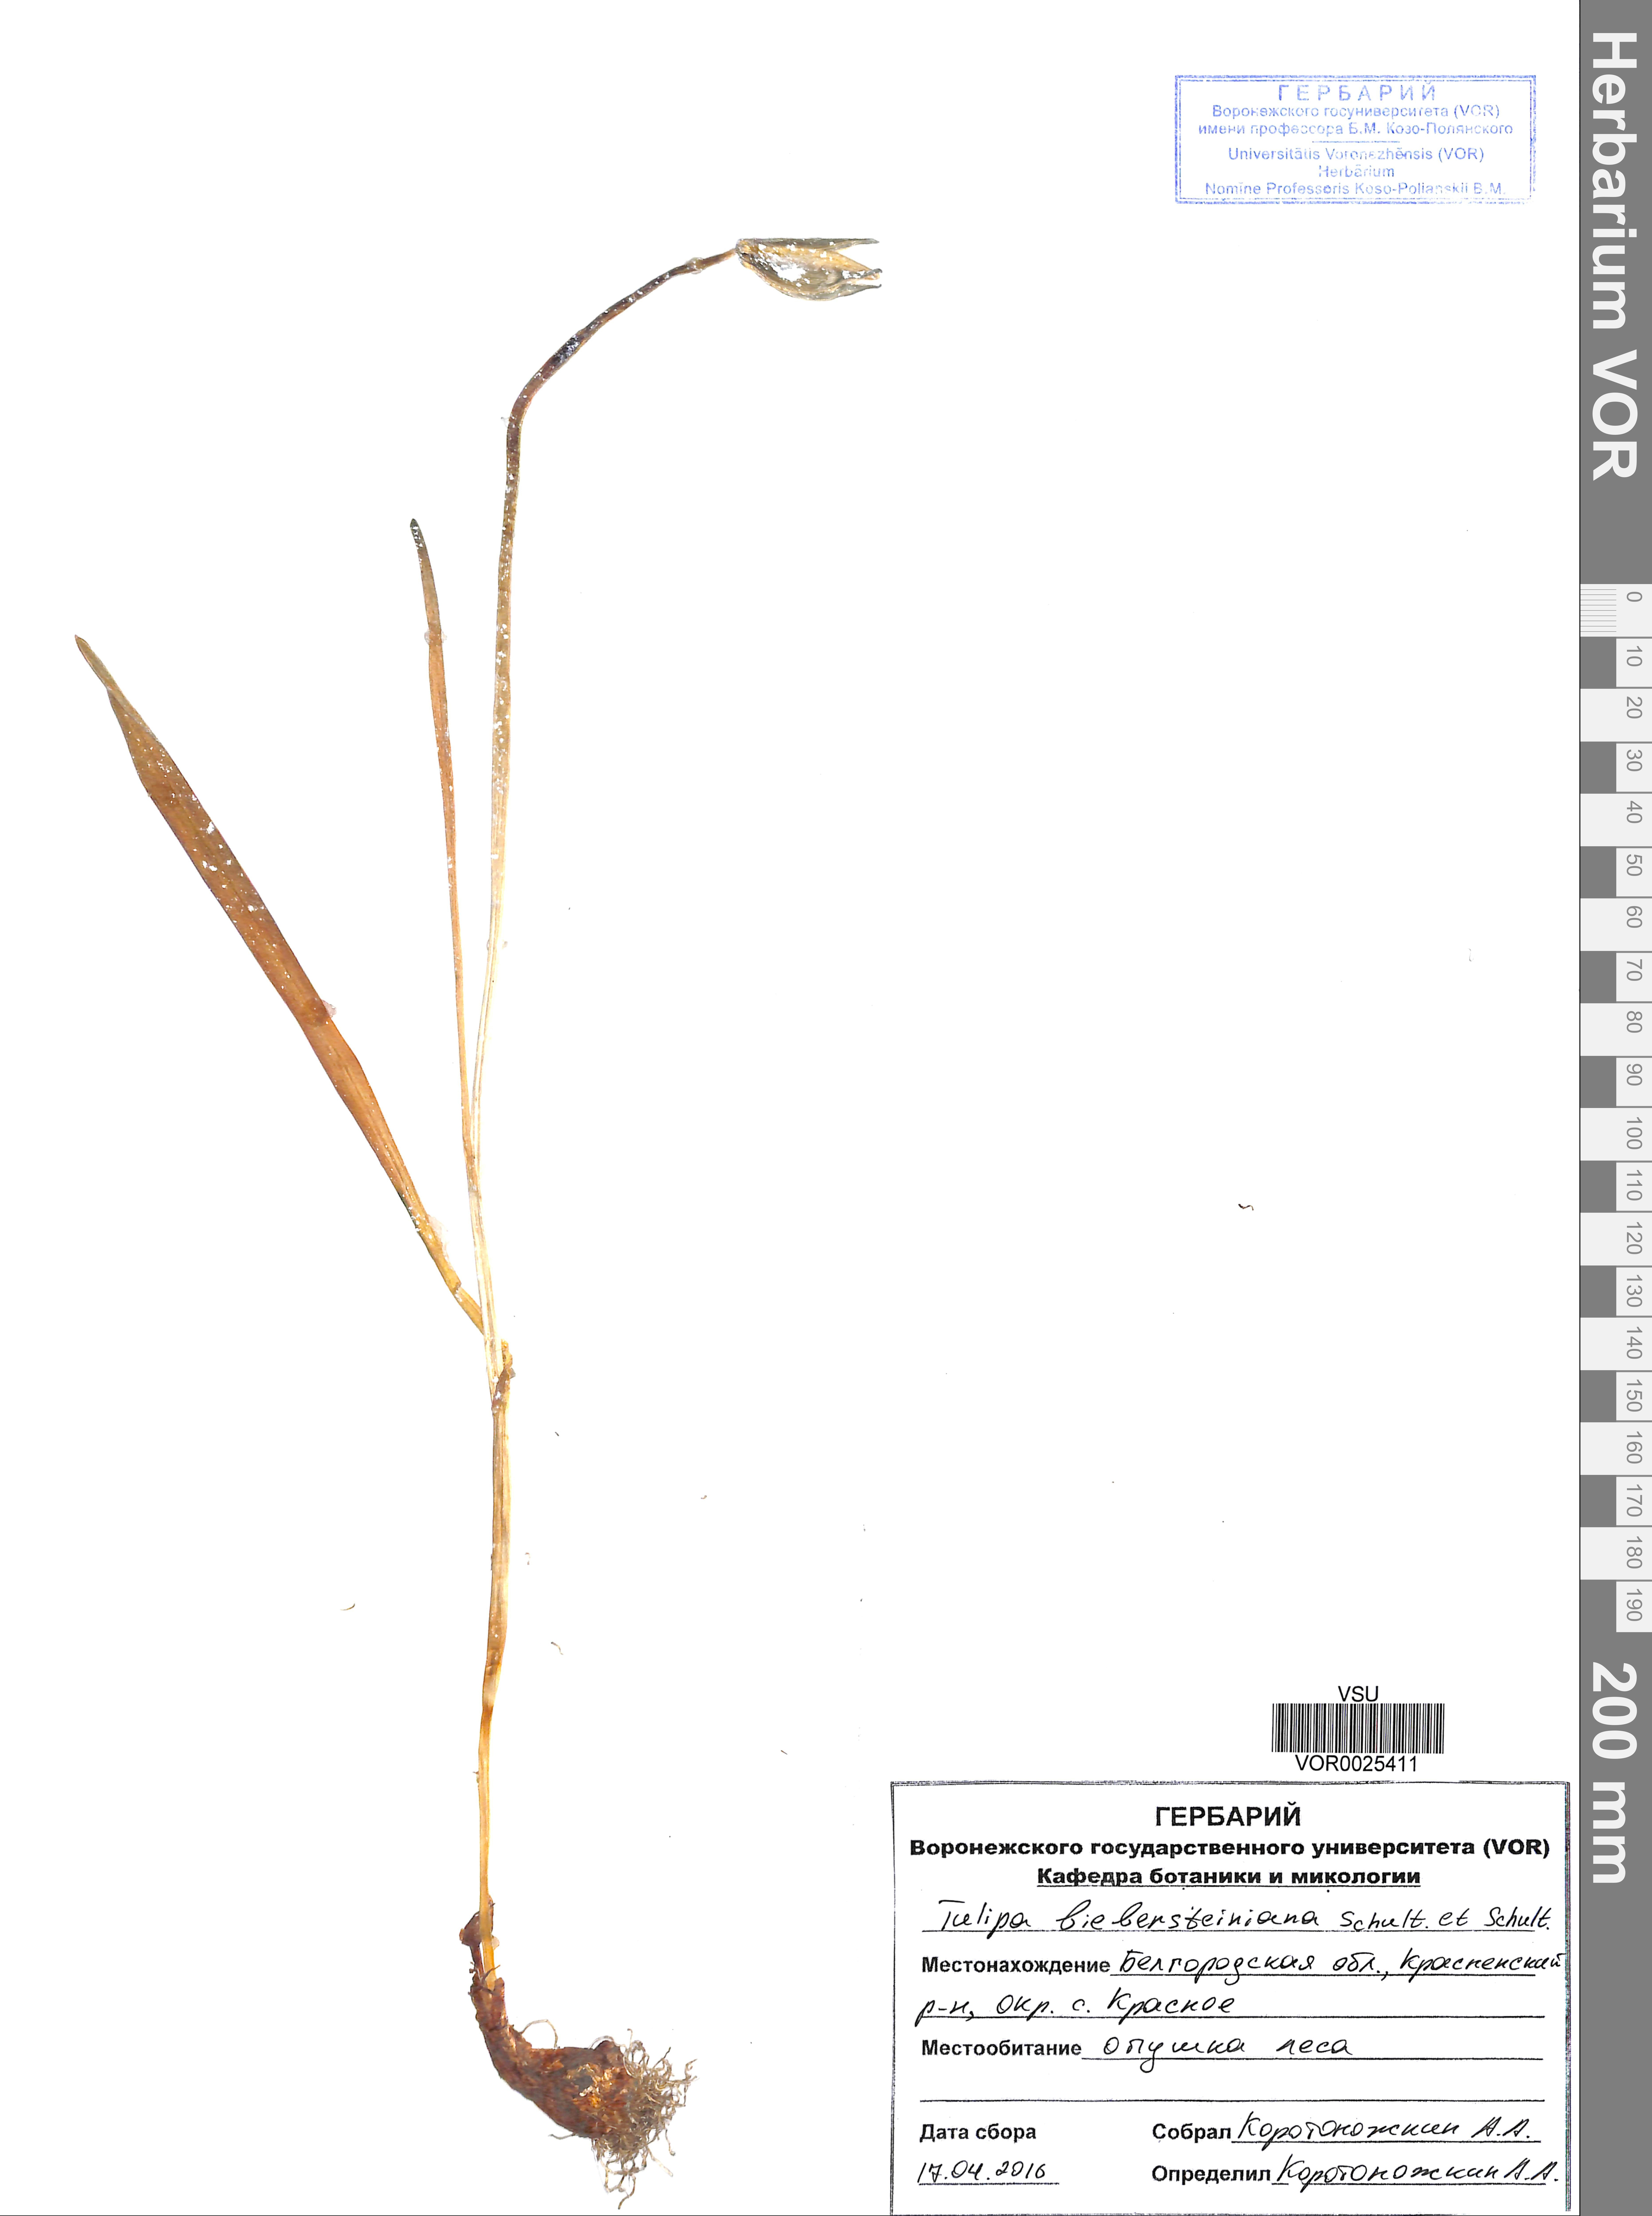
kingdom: Plantae
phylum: Tracheophyta
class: Liliopsida
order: Liliales
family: Liliaceae
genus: Tulipa
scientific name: Tulipa sylvestris
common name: Wild tulip
